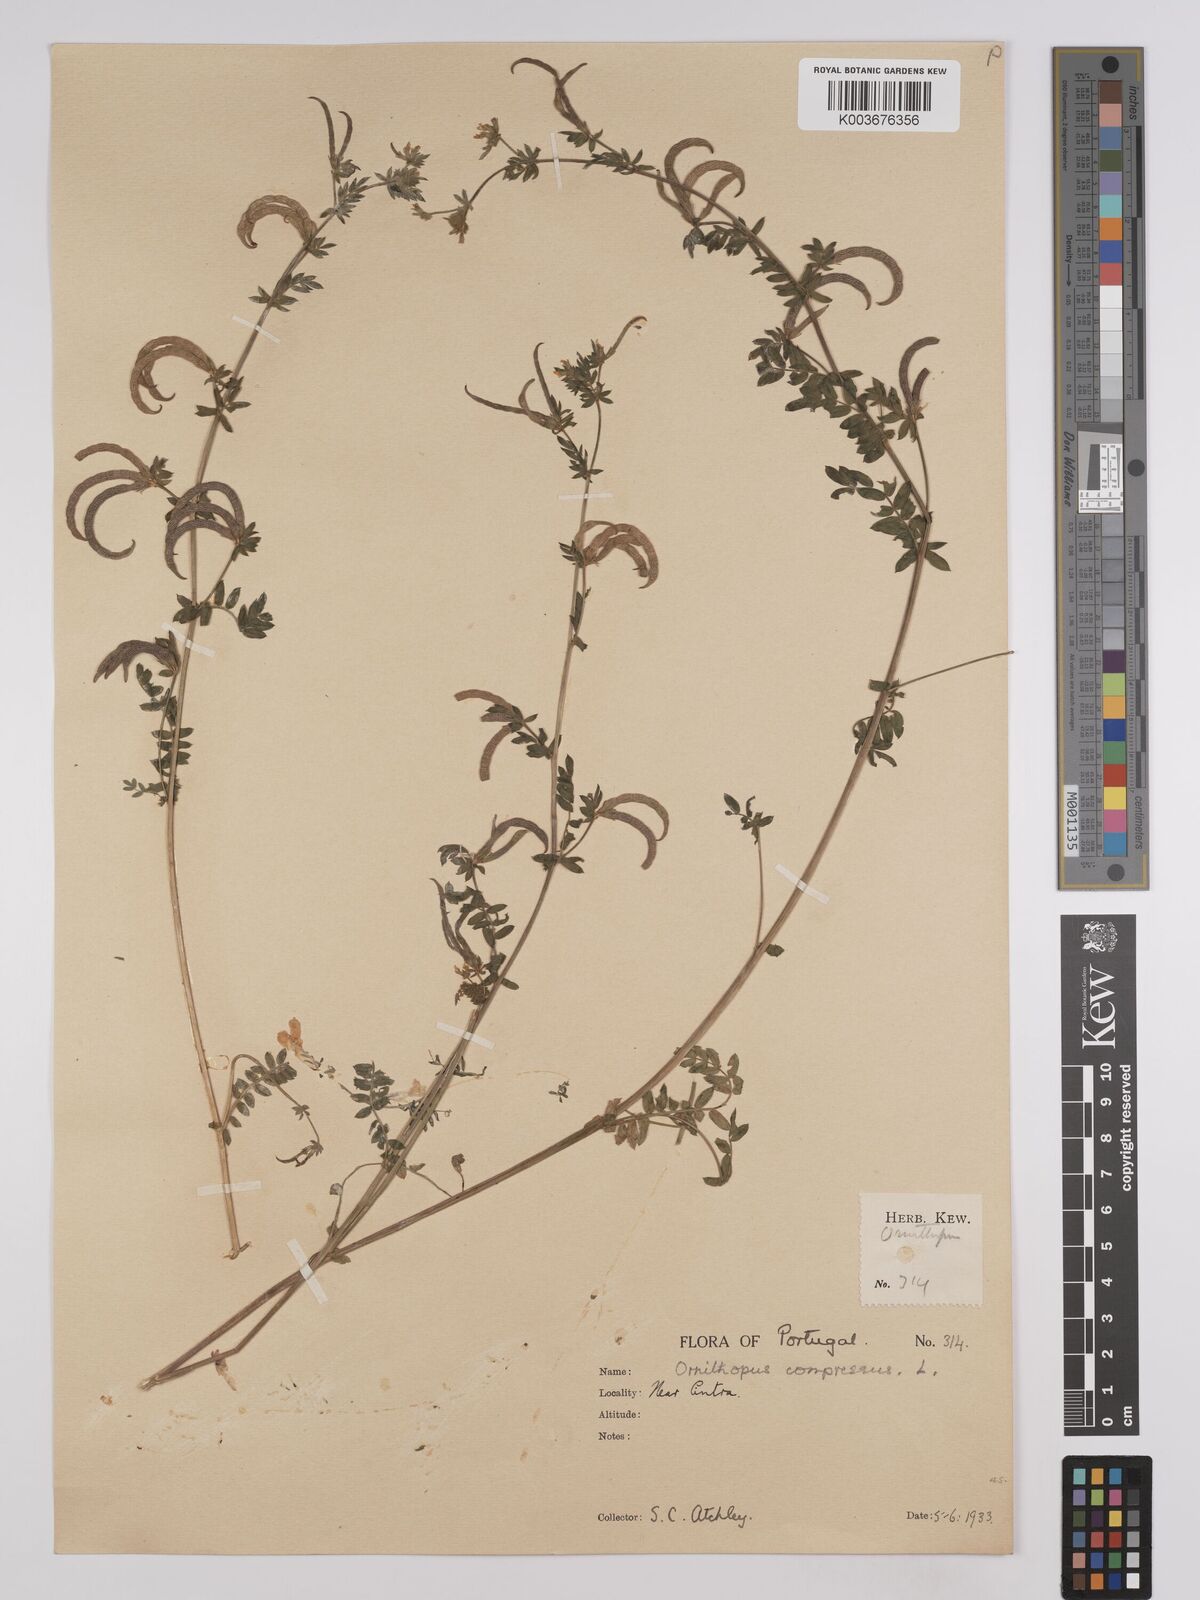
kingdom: Plantae
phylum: Tracheophyta
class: Magnoliopsida
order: Fabales
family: Fabaceae
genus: Ornithopus
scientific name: Ornithopus compressus
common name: Yellow serradella
